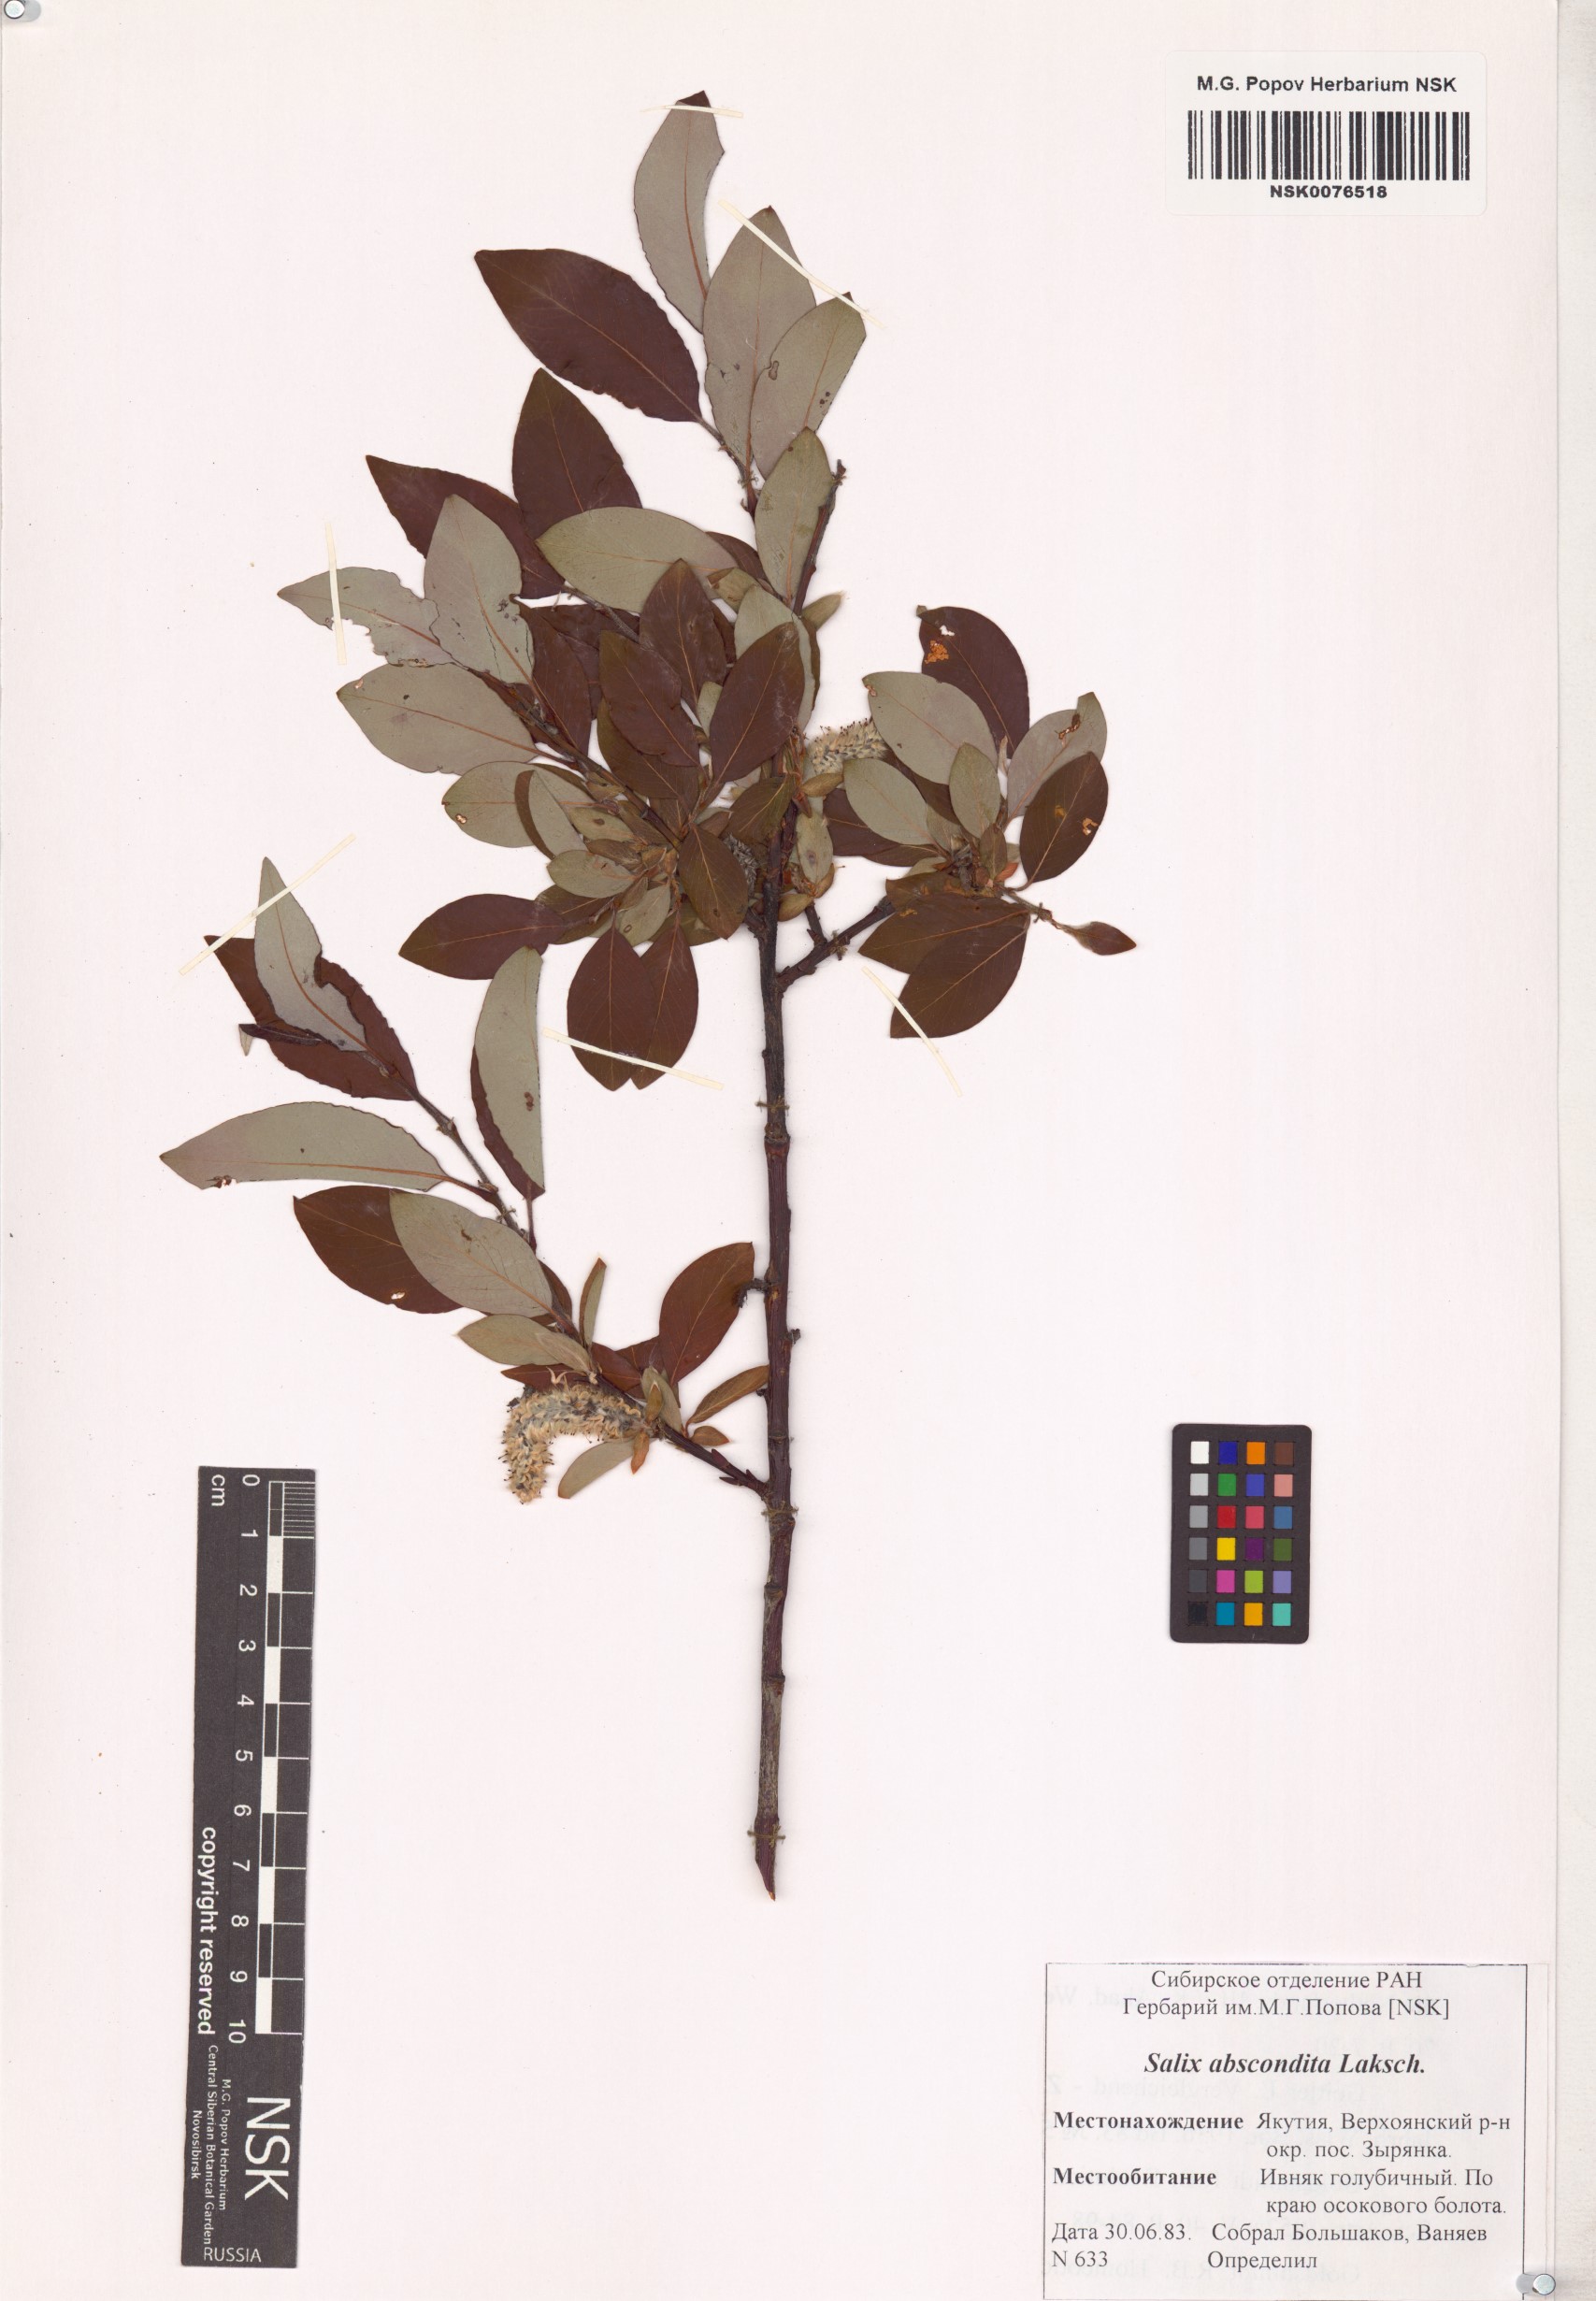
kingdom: Plantae
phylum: Tracheophyta
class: Magnoliopsida
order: Malpighiales
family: Salicaceae
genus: Salix
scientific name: Salix abscondita
